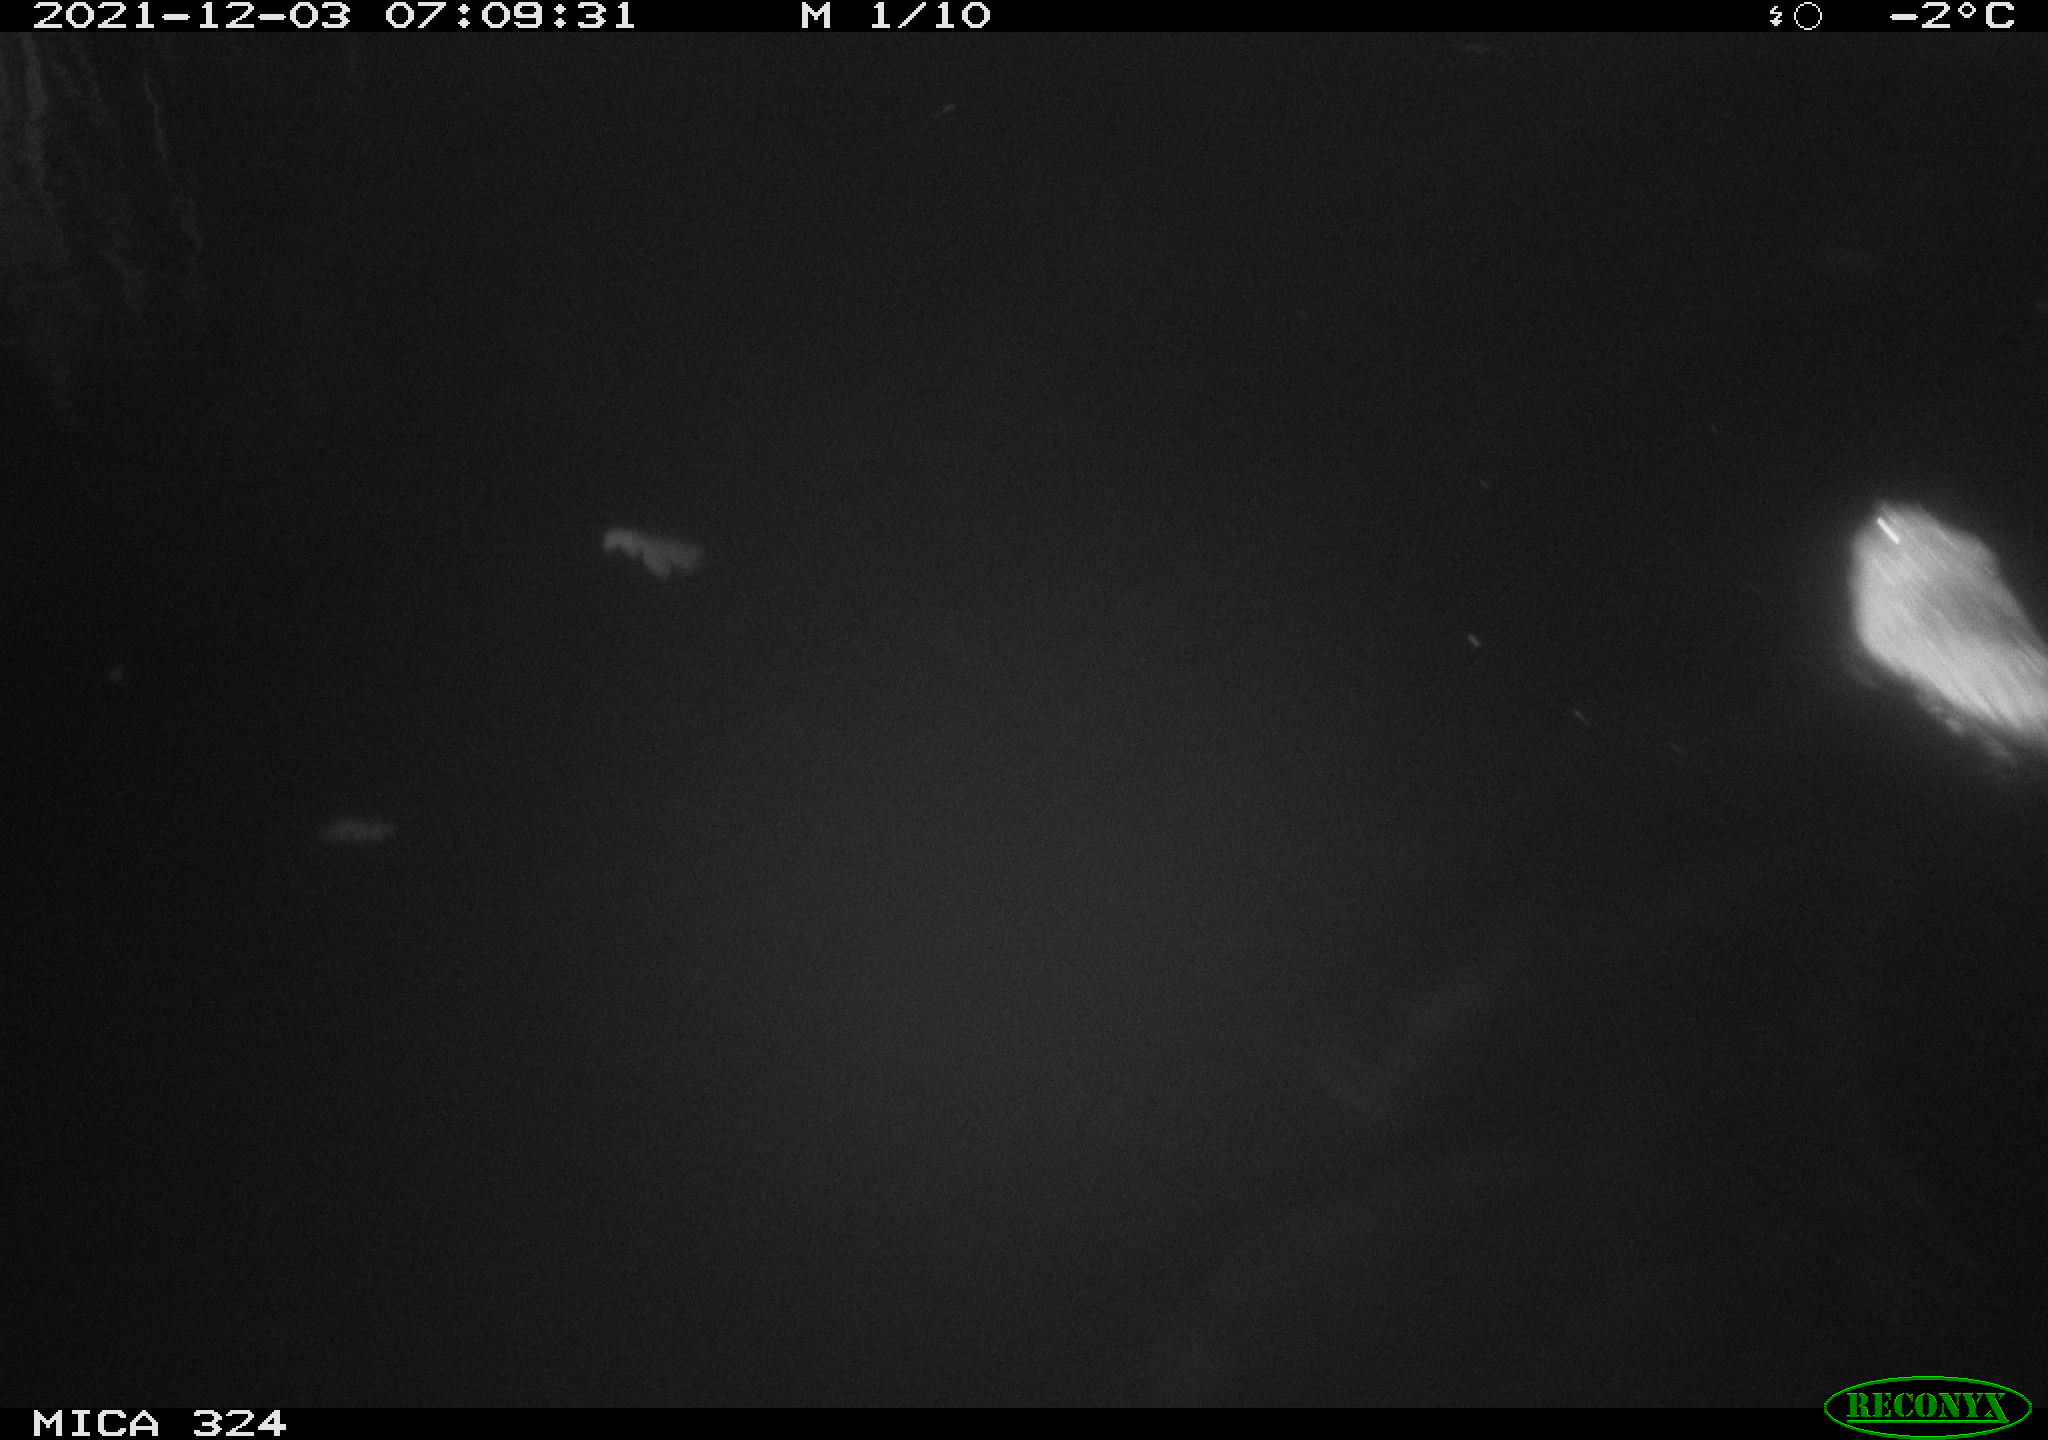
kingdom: Animalia
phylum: Chordata
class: Mammalia
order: Rodentia
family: Cricetidae
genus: Ondatra
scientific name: Ondatra zibethicus
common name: Muskrat
